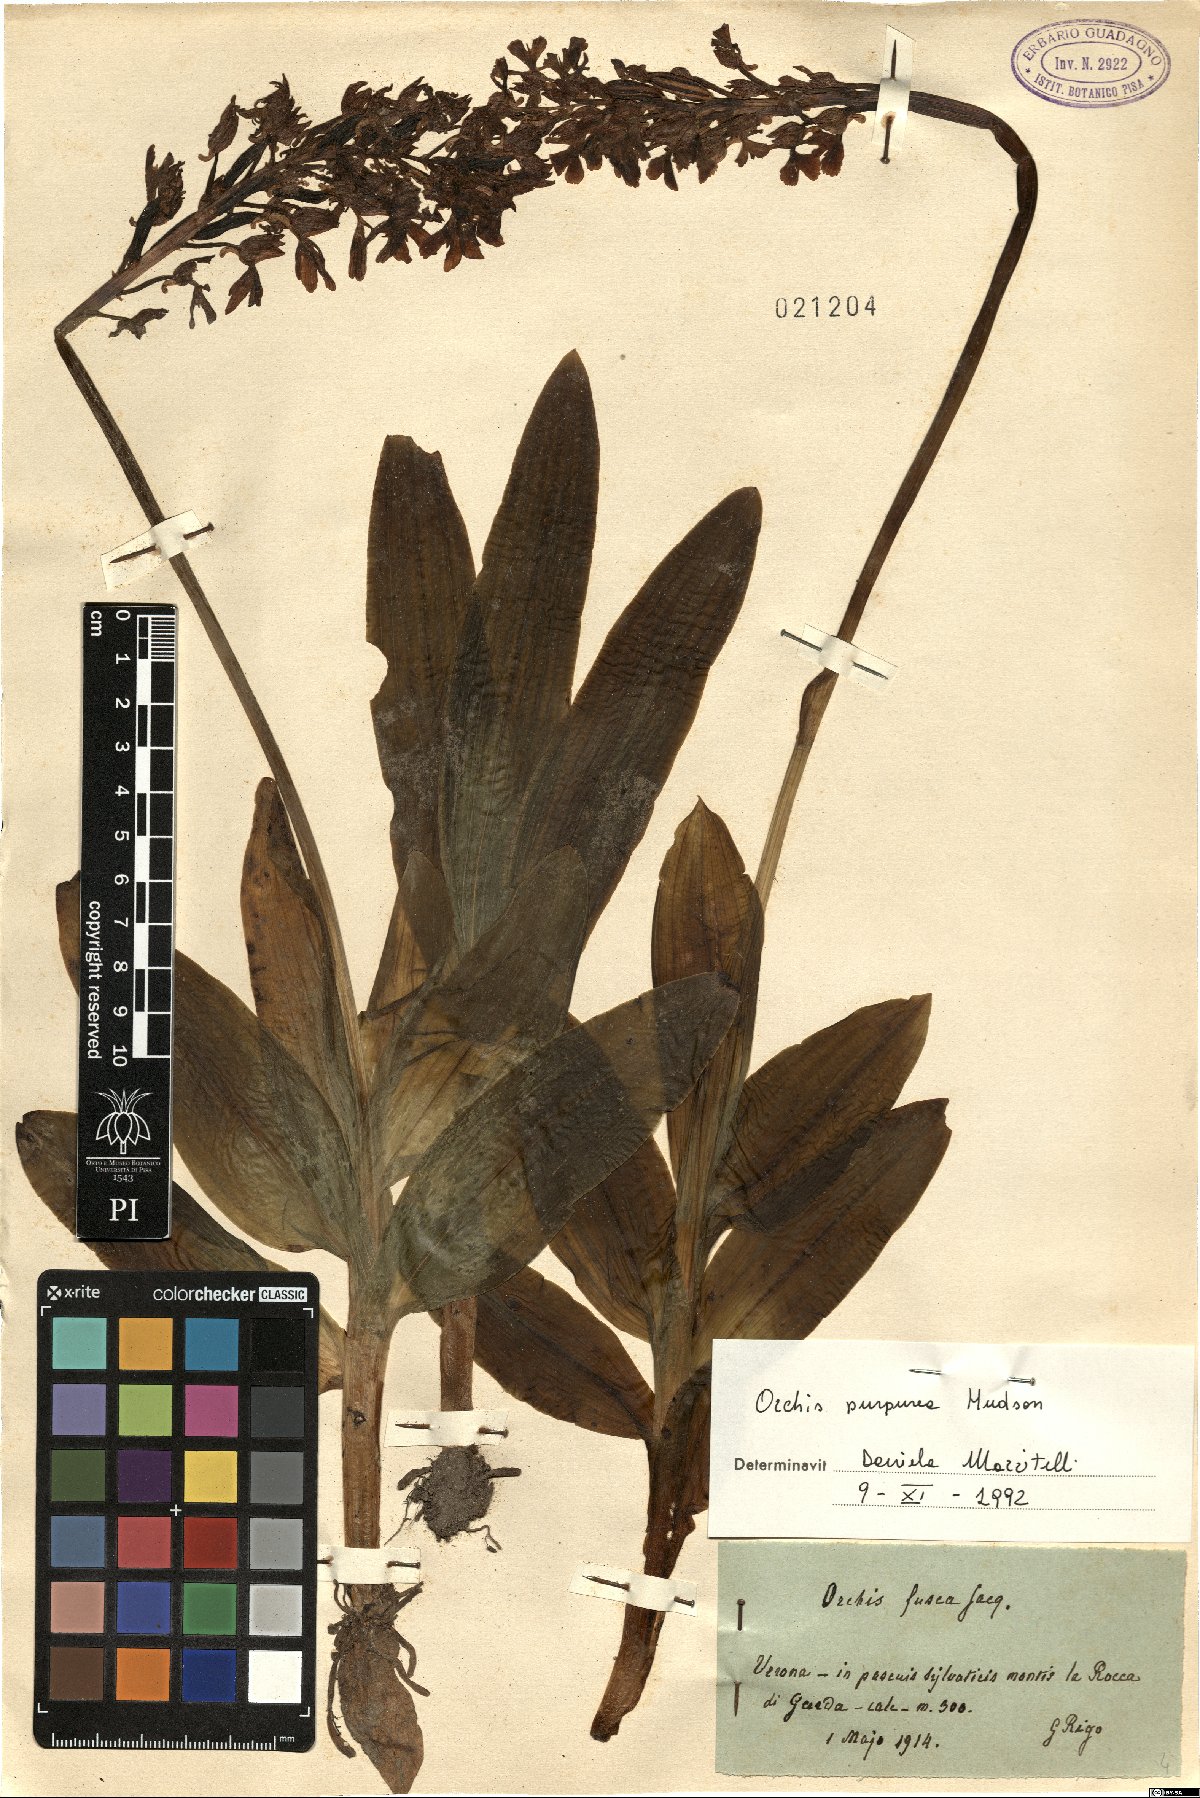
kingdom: Plantae
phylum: Tracheophyta
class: Liliopsida
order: Asparagales
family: Orchidaceae
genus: Orchis
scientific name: Orchis purpurea
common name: Lady orchid
